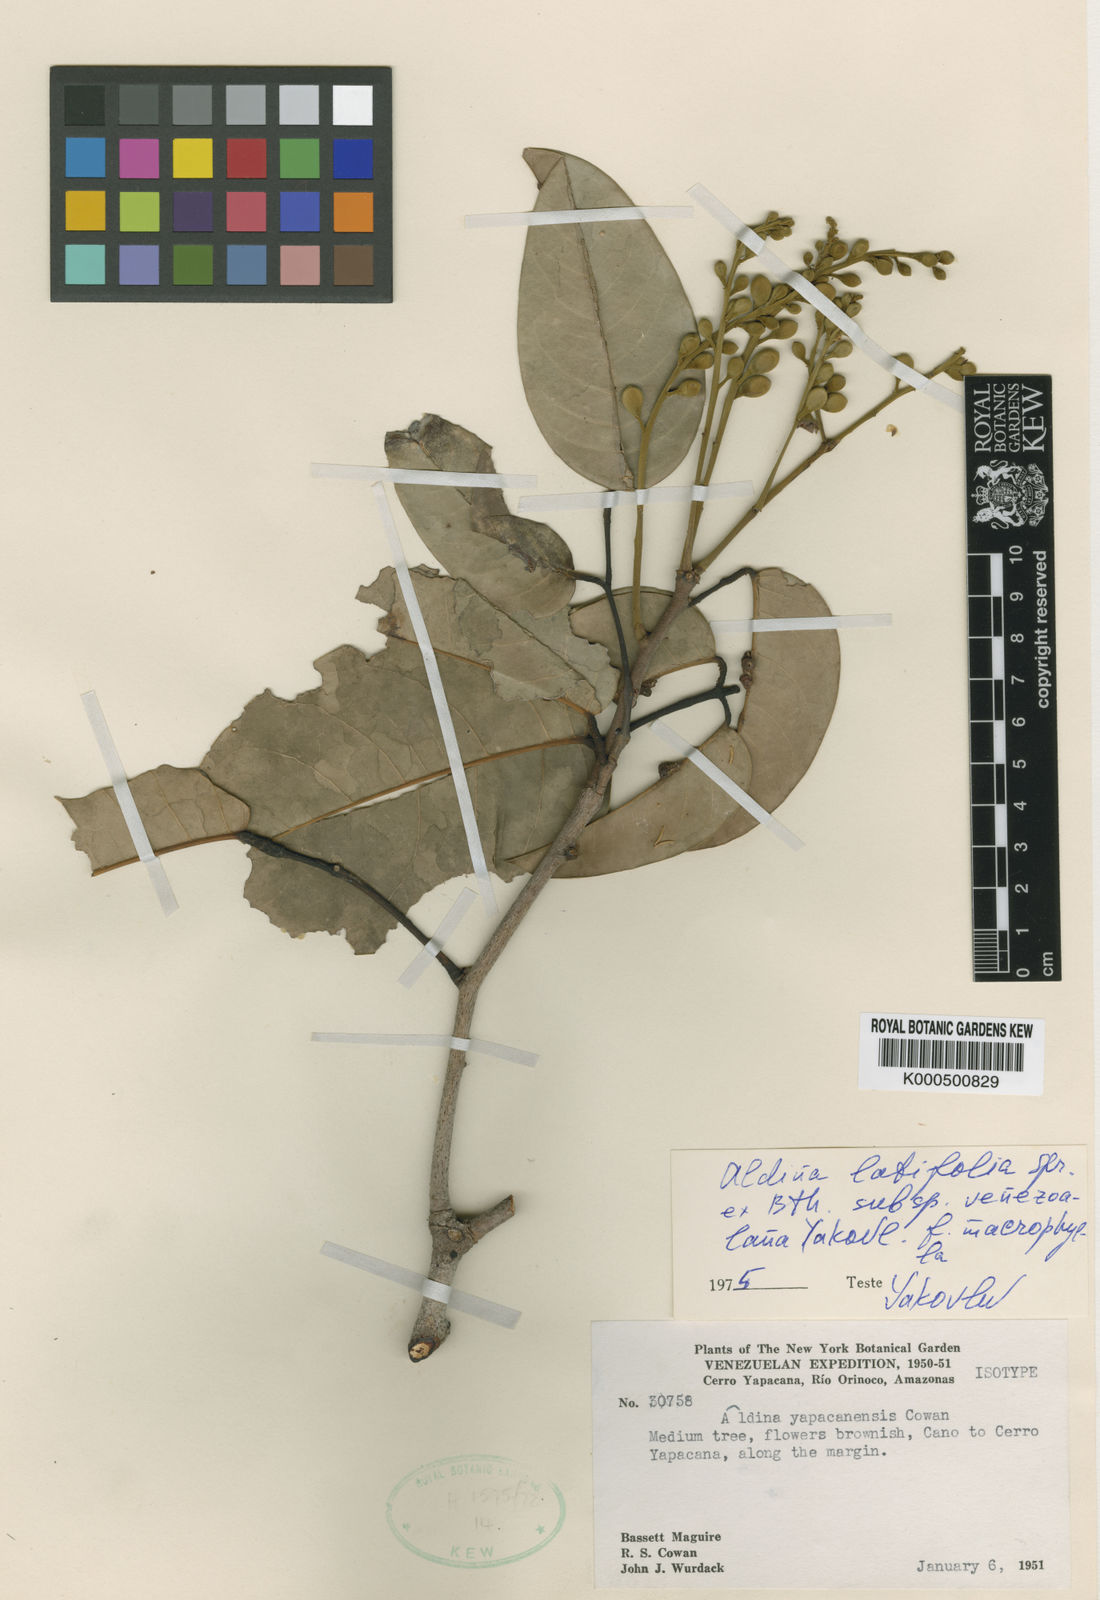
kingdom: Plantae
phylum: Tracheophyta
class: Magnoliopsida
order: Fabales
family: Fabaceae
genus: Aldina
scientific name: Aldina latifolia
